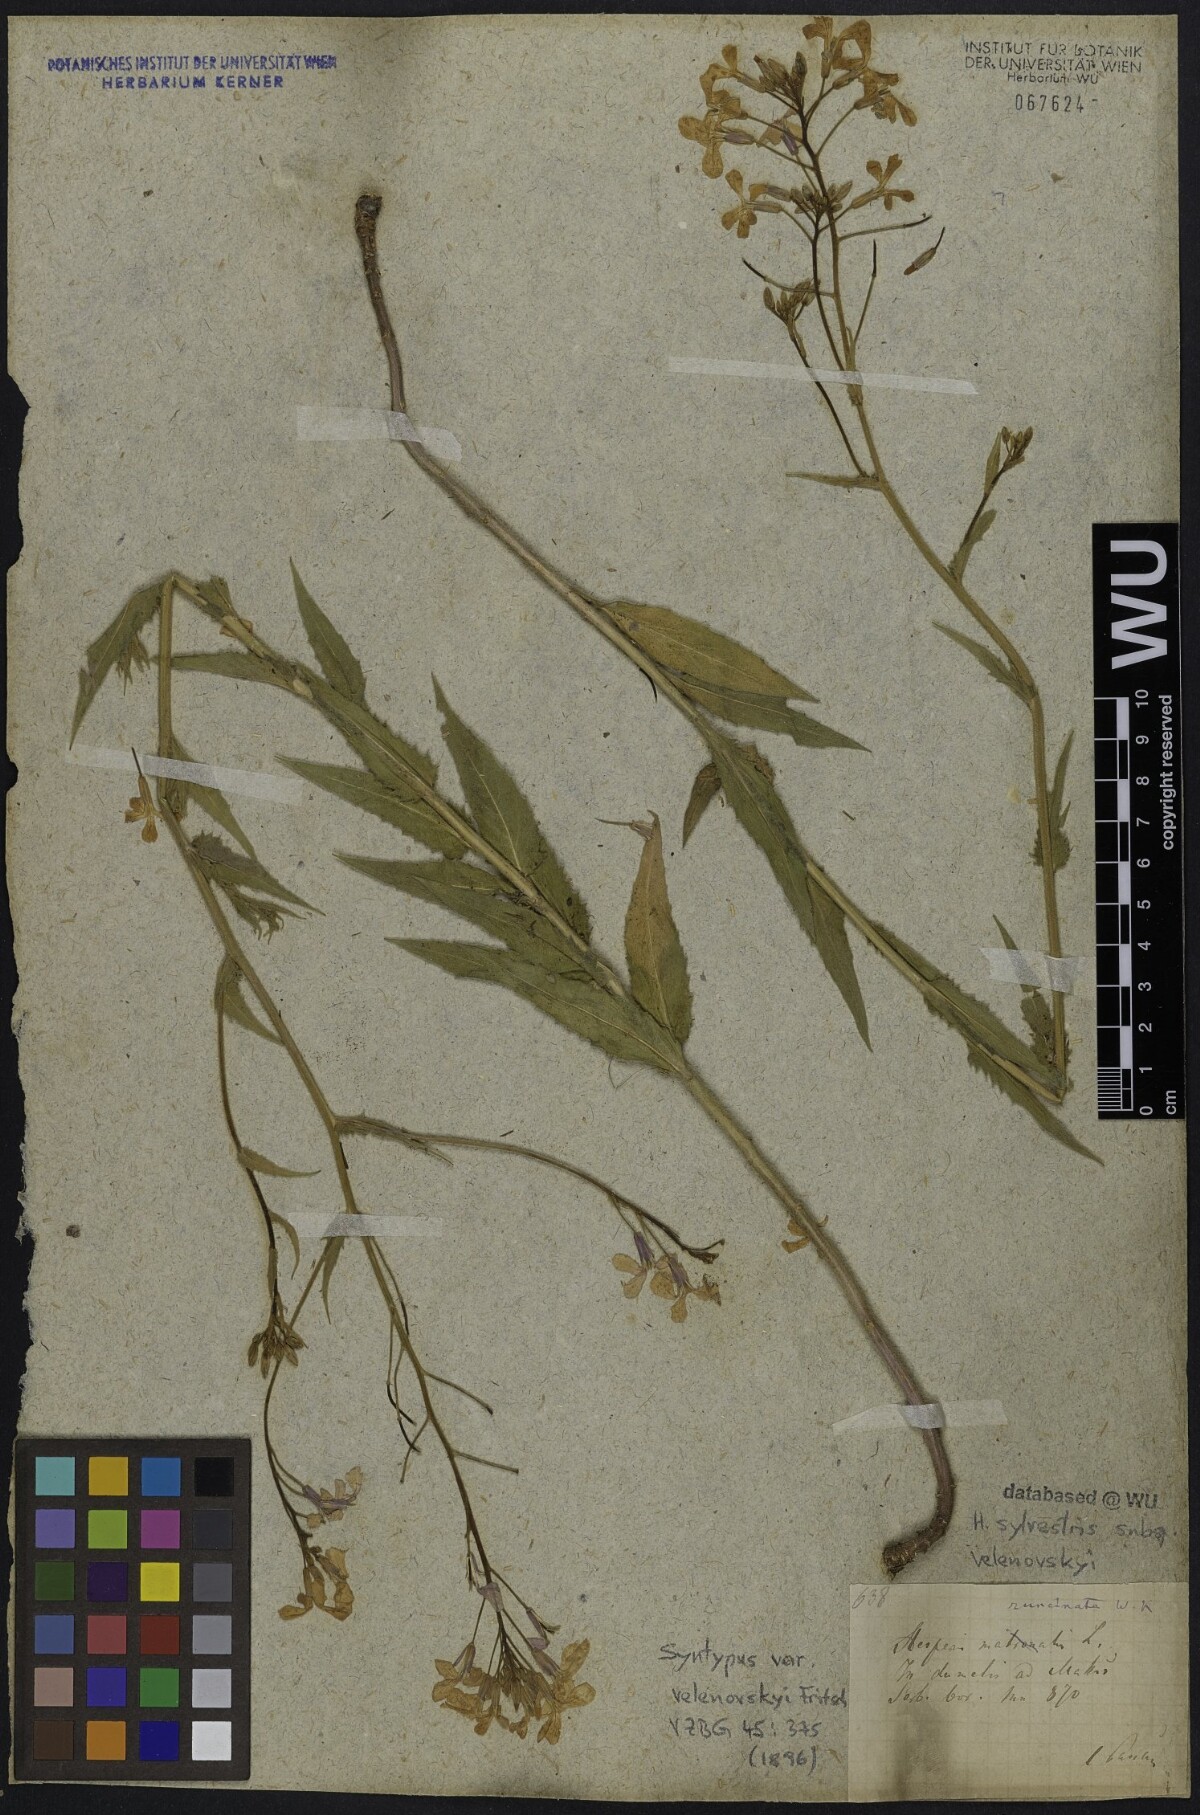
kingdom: Plantae
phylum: Tracheophyta
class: Magnoliopsida
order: Brassicales
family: Brassicaceae
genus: Hesperis
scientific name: Hesperis sylvestris
